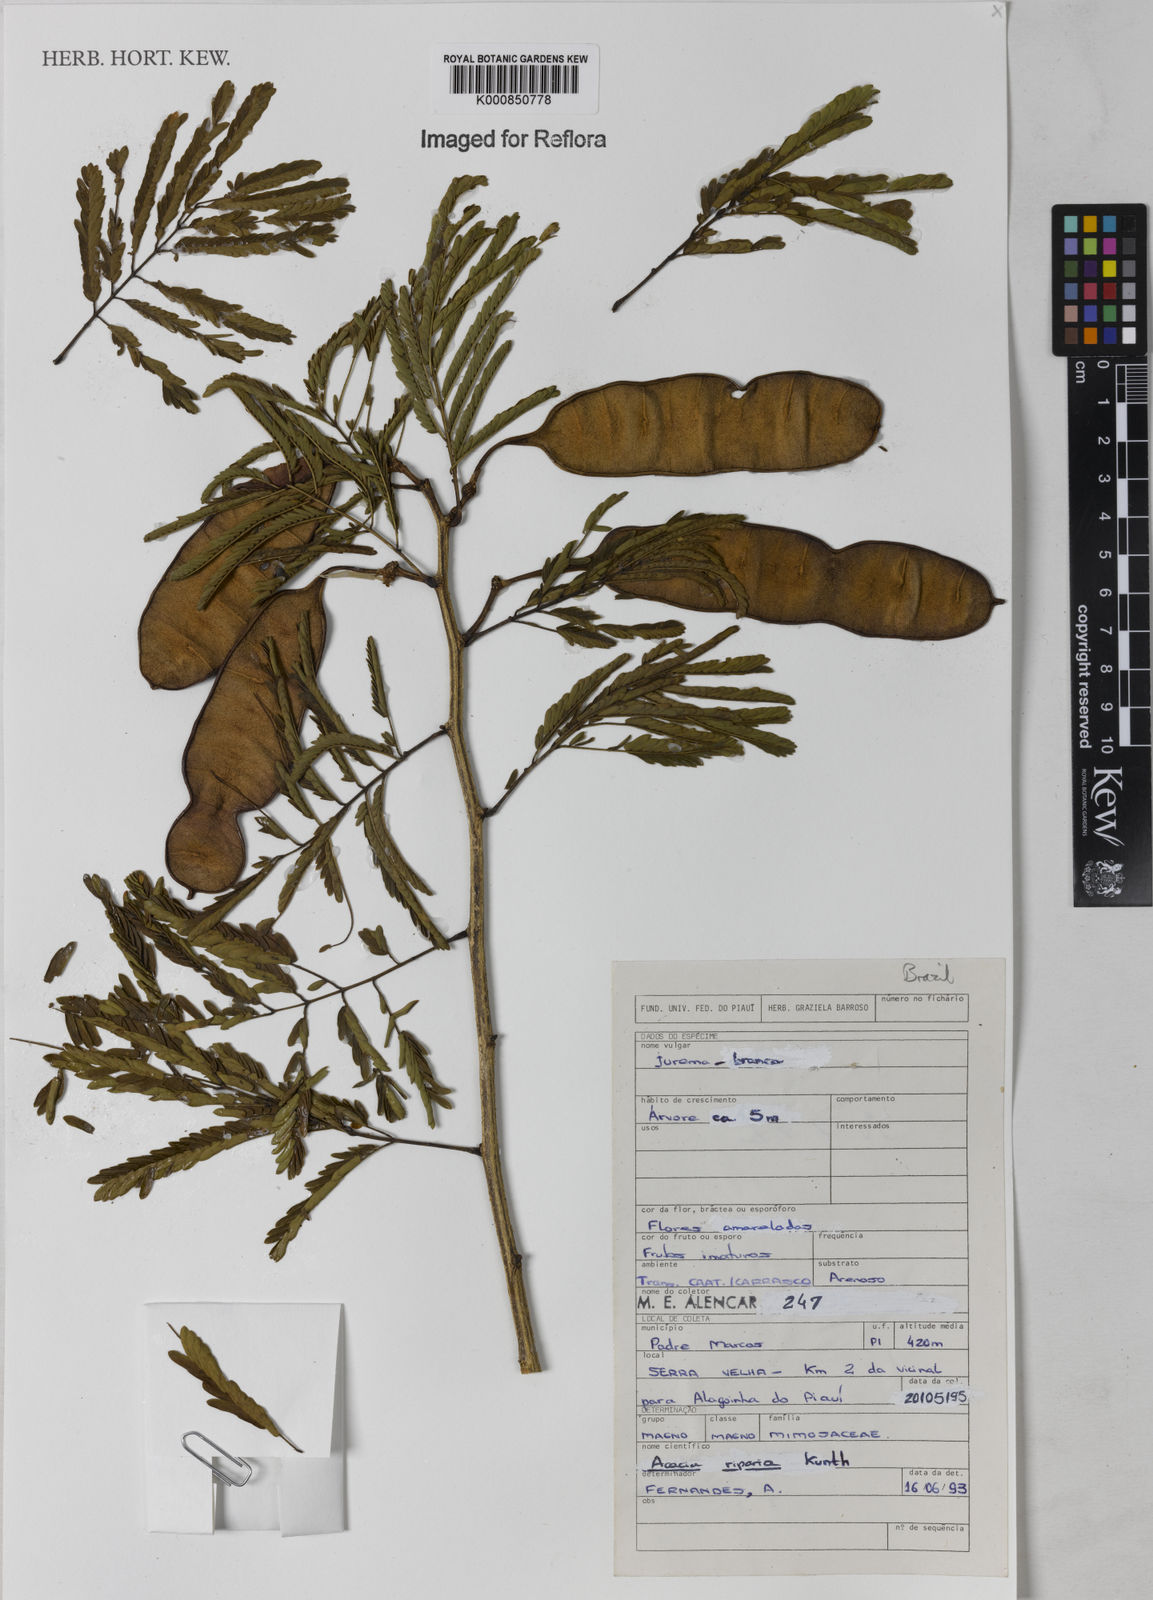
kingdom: Plantae
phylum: Tracheophyta
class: Magnoliopsida
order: Fabales
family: Fabaceae
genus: Senegalia
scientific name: Senegalia riparia
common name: Catch-and-keep
